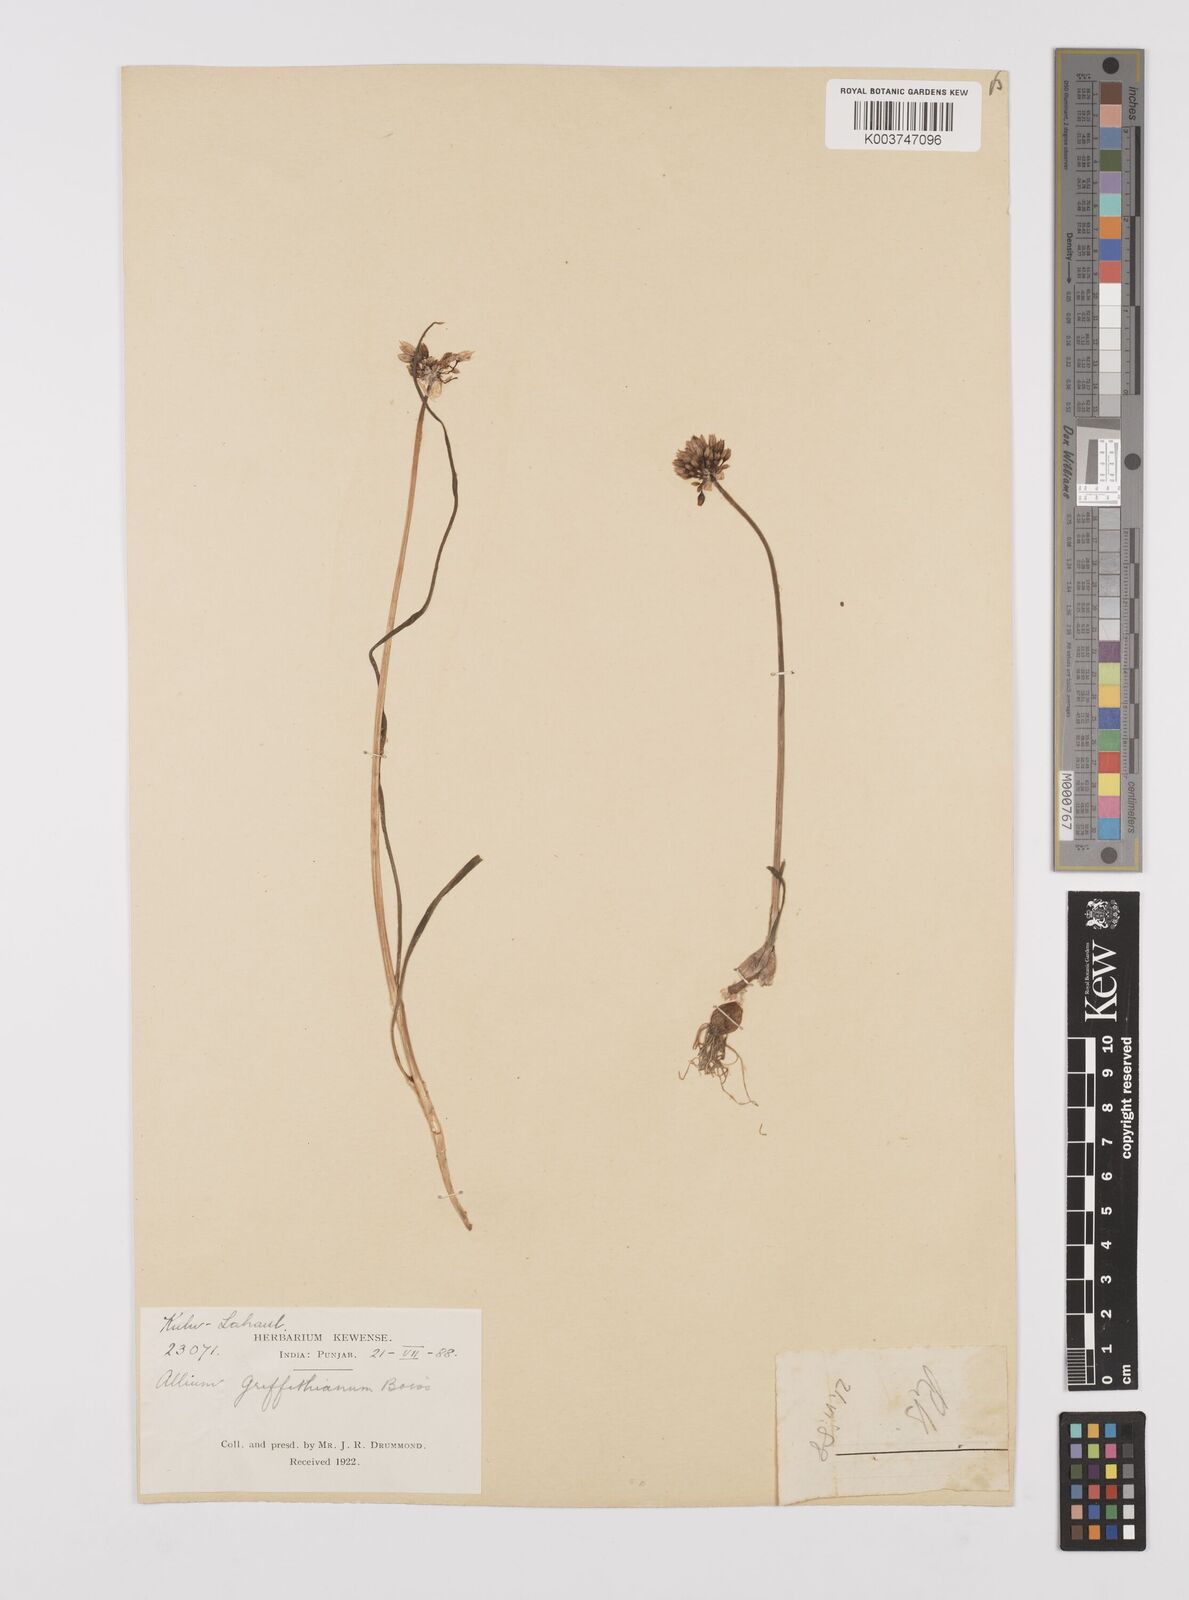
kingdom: Plantae
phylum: Tracheophyta
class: Liliopsida
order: Asparagales
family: Amaryllidaceae
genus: Allium
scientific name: Allium caesioides
